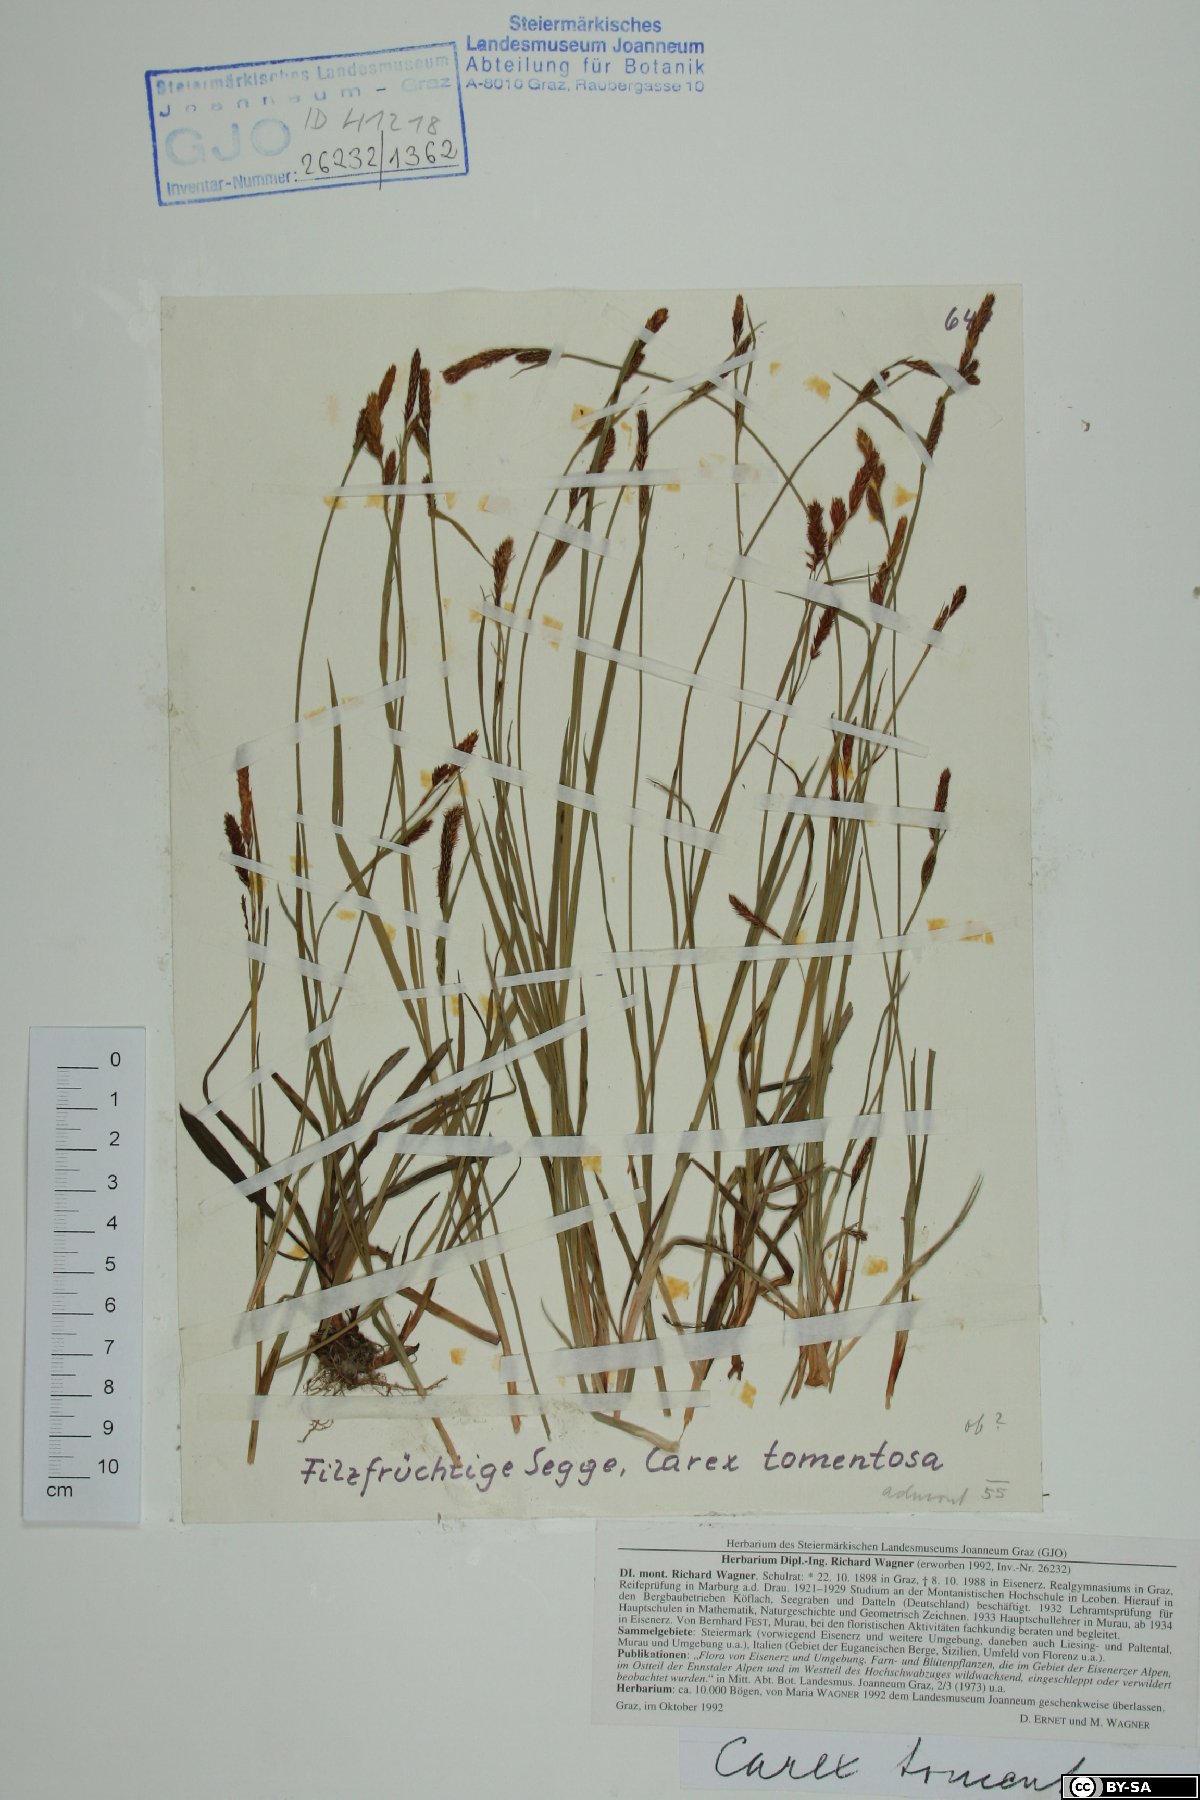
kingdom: Plantae
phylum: Tracheophyta
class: Liliopsida
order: Poales
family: Cyperaceae
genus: Carex
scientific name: Carex tomentosa
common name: Downy-fruited sedge
